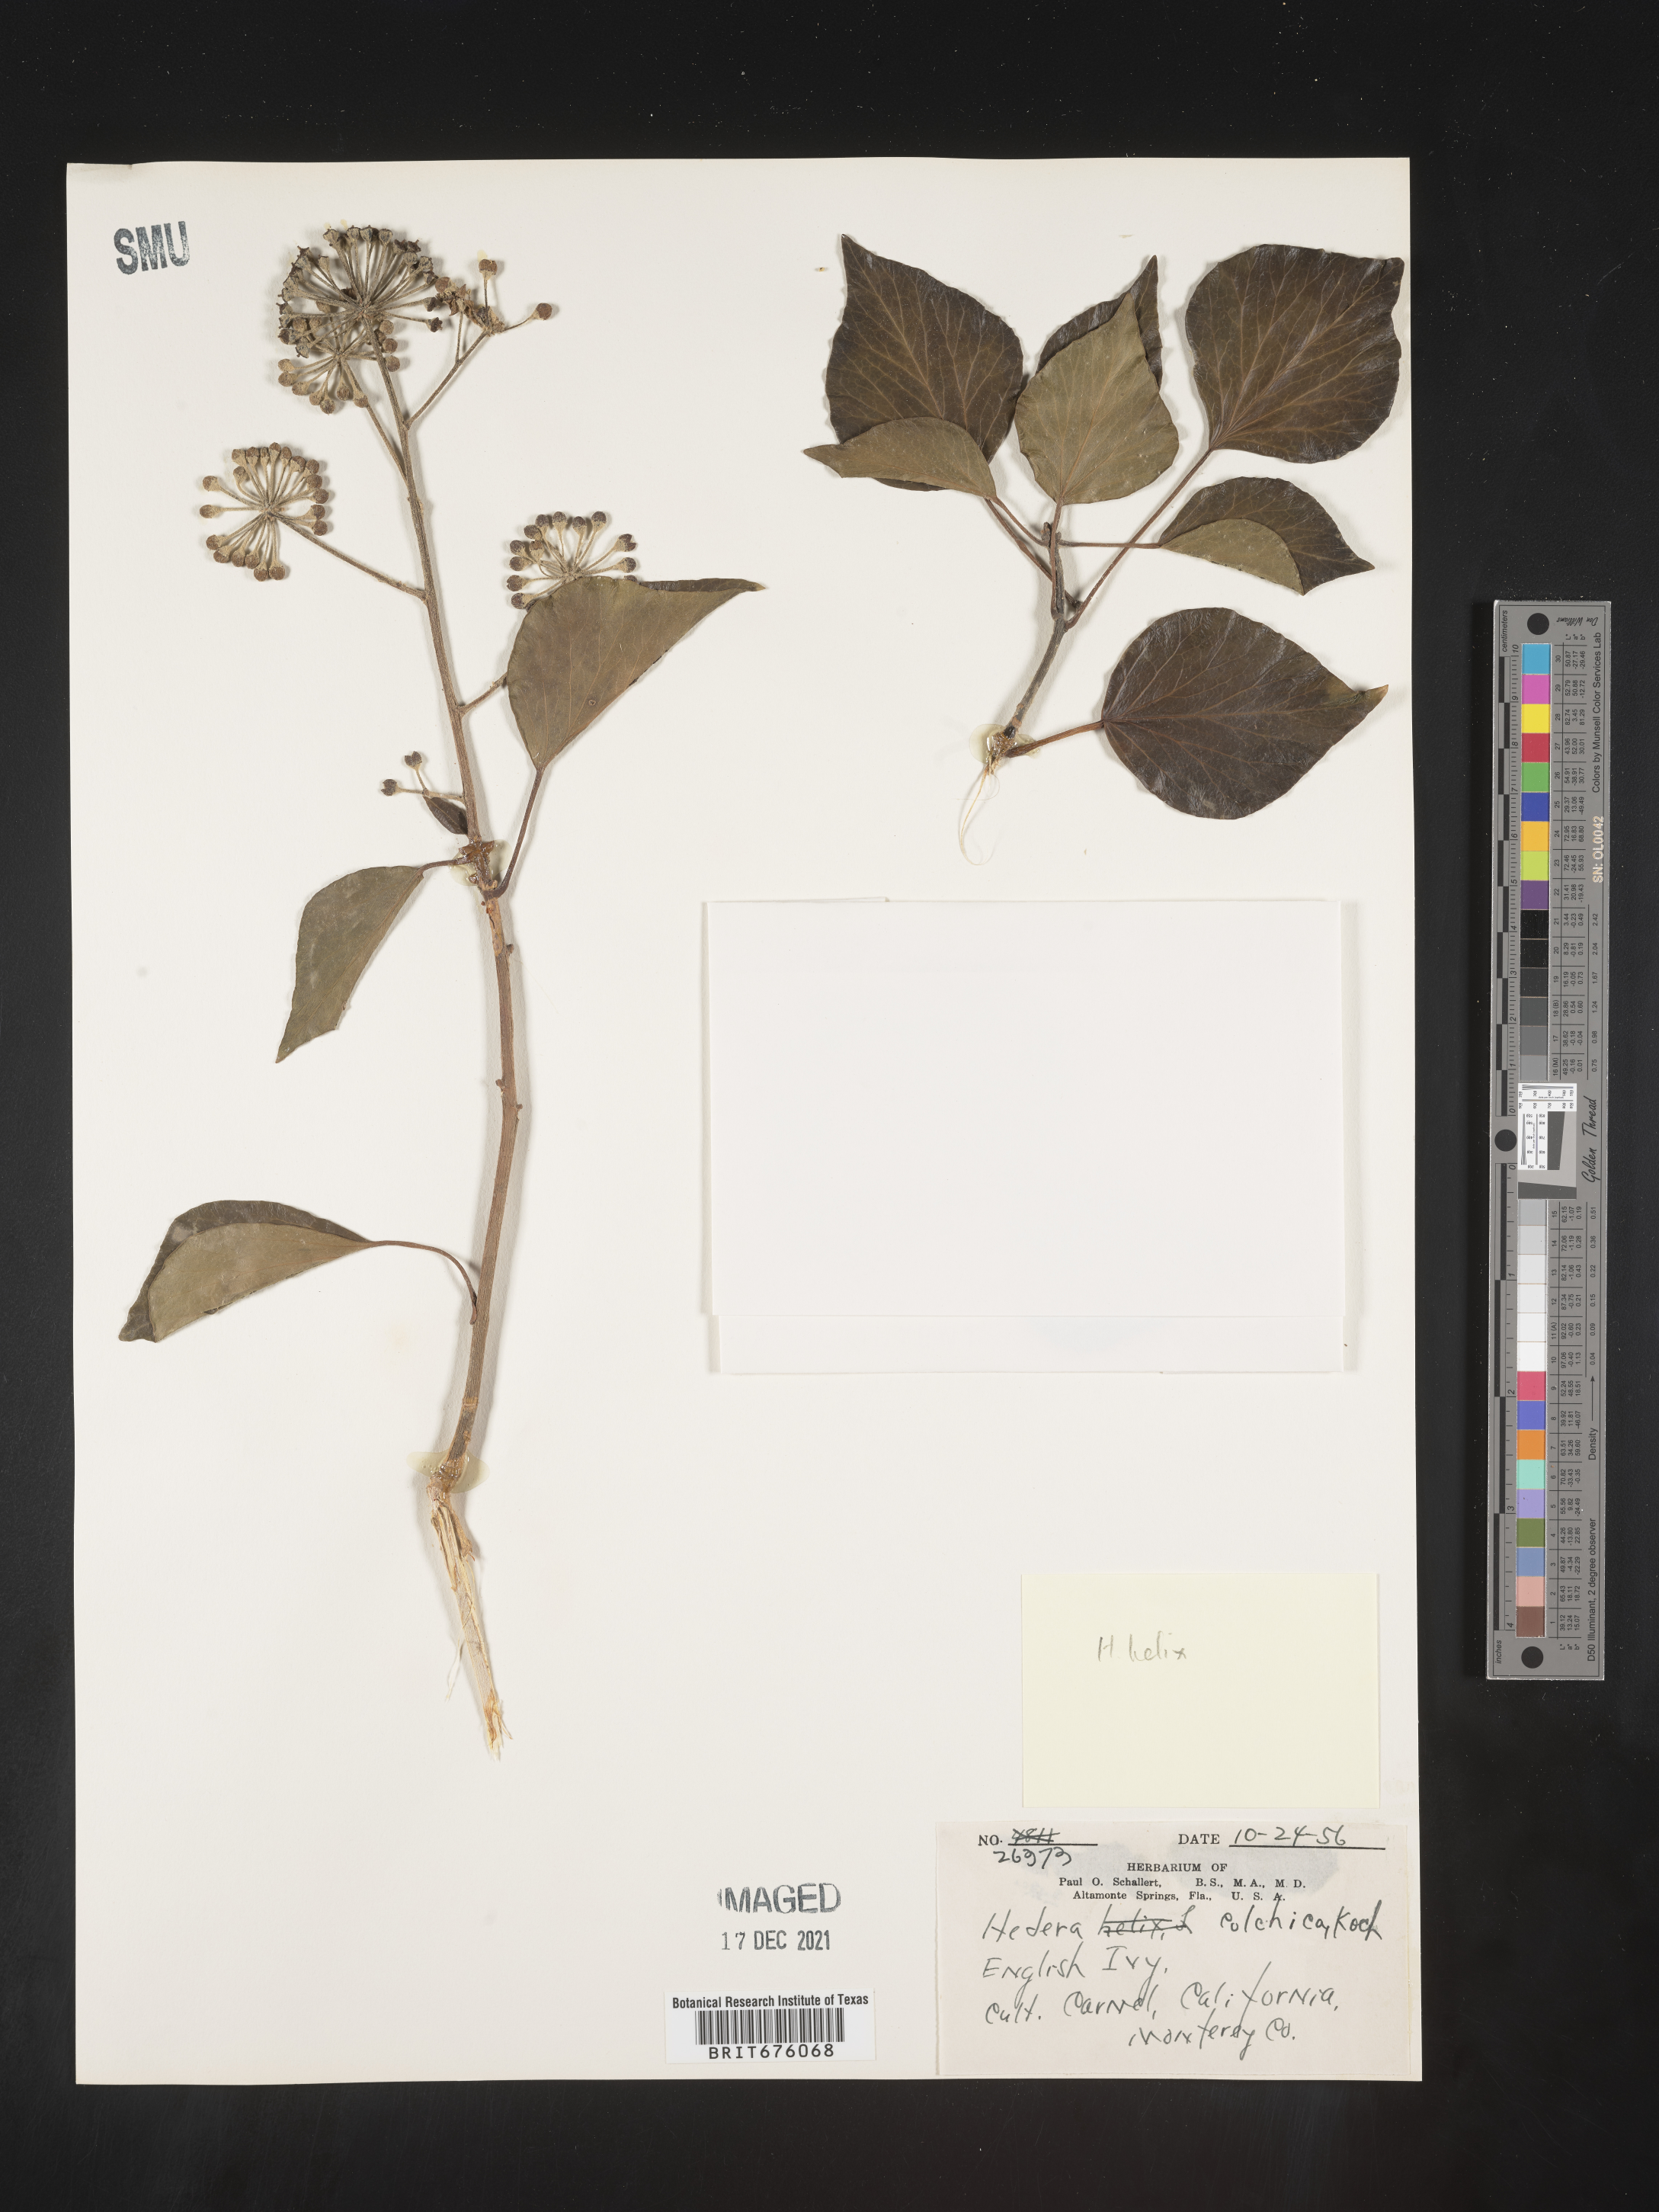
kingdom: Plantae
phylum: Tracheophyta
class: Magnoliopsida
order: Apiales
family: Araliaceae
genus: Hedera
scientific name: Hedera
